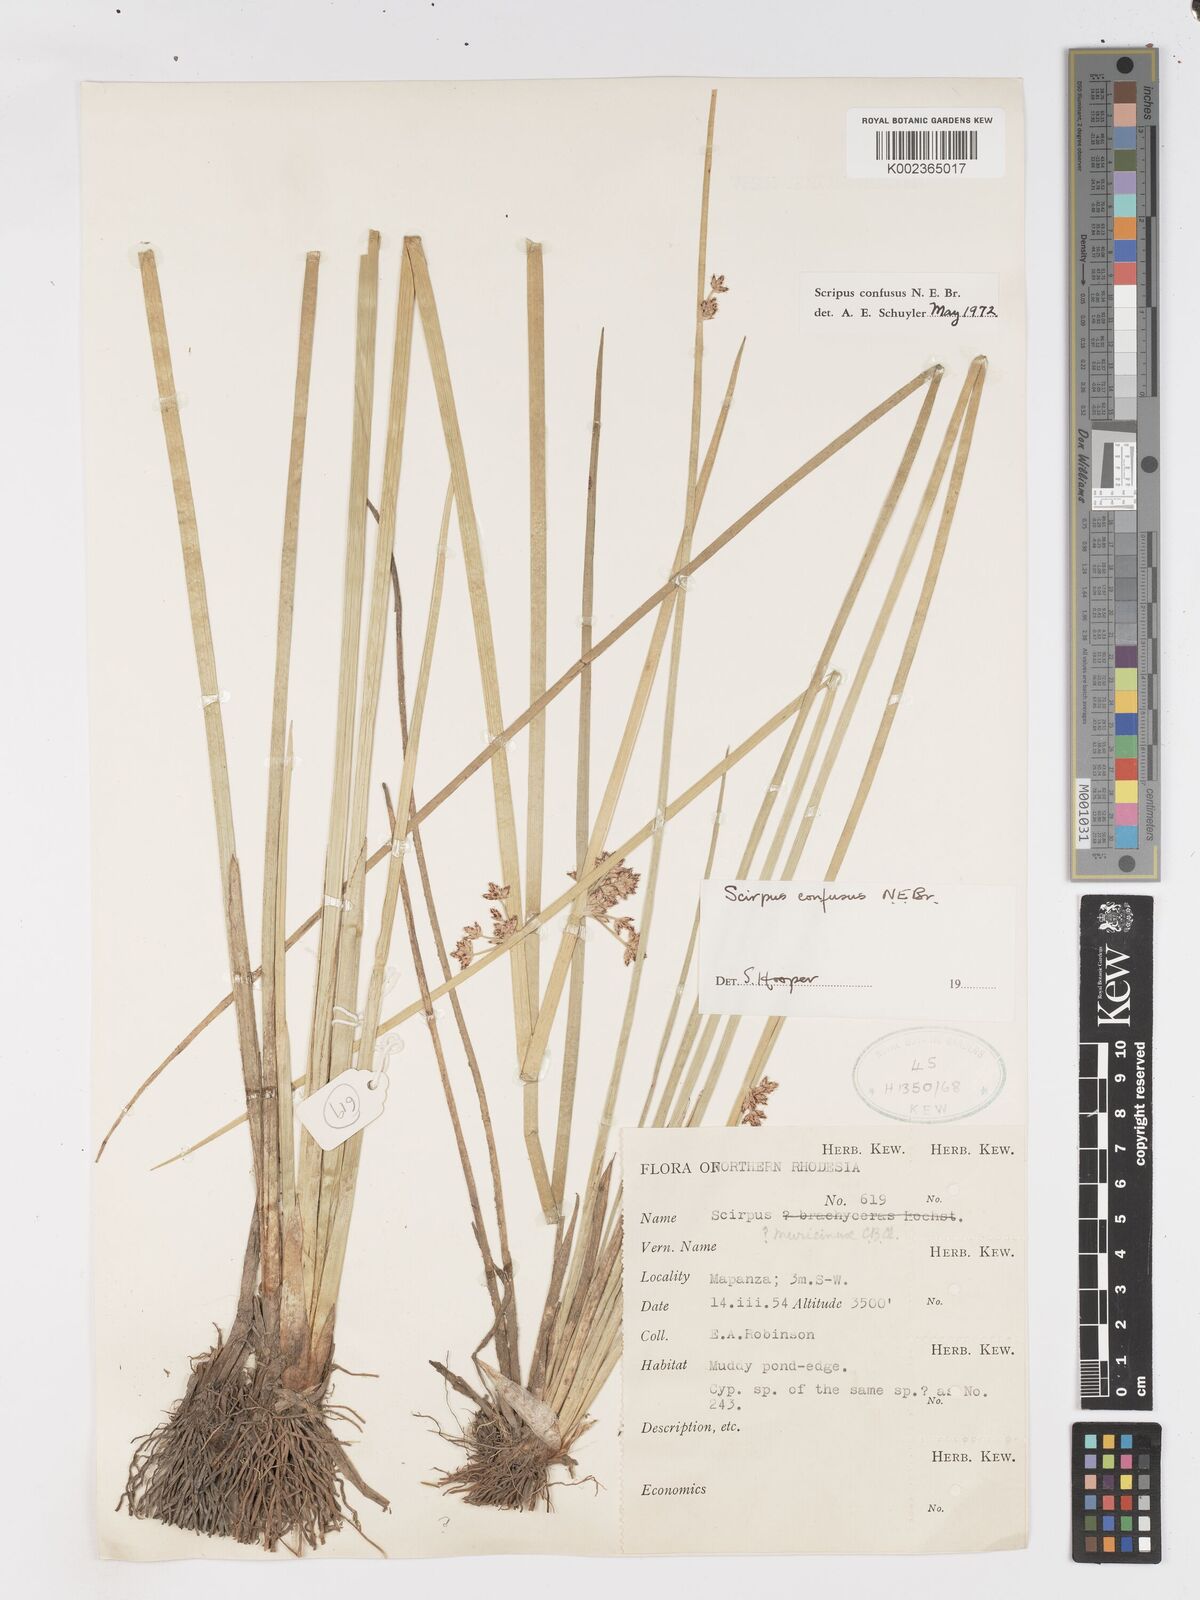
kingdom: Plantae
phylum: Tracheophyta
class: Liliopsida
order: Poales
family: Cyperaceae
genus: Schoenoplectiella
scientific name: Schoenoplectiella confusa
